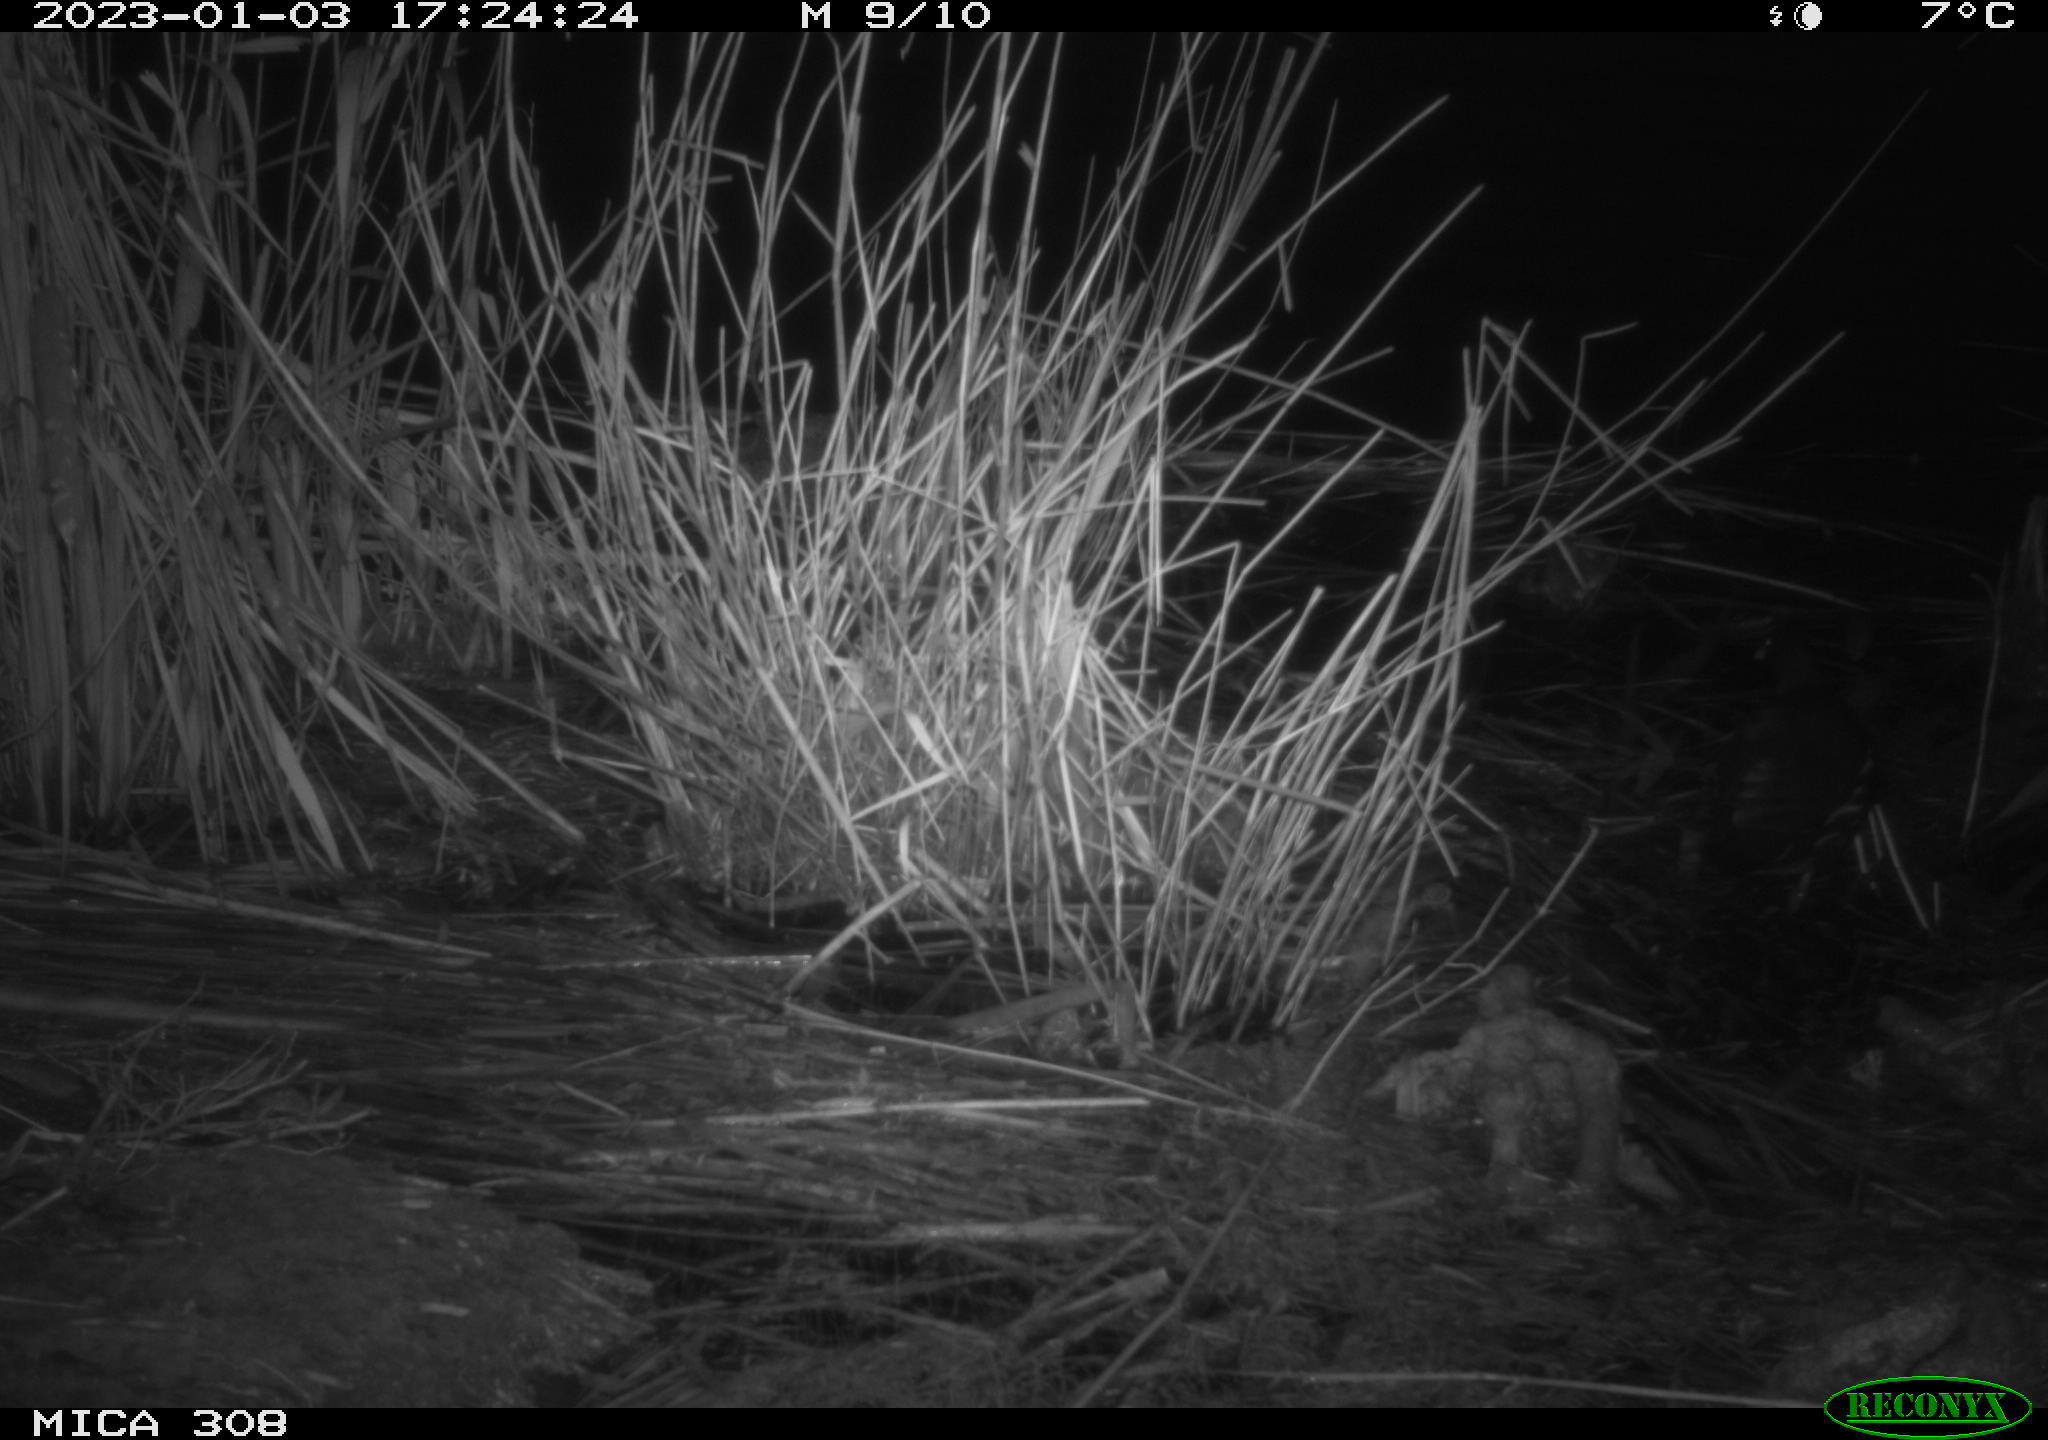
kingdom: Animalia
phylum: Chordata
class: Aves
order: Gruiformes
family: Rallidae
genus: Gallinula
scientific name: Gallinula chloropus
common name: Common moorhen
